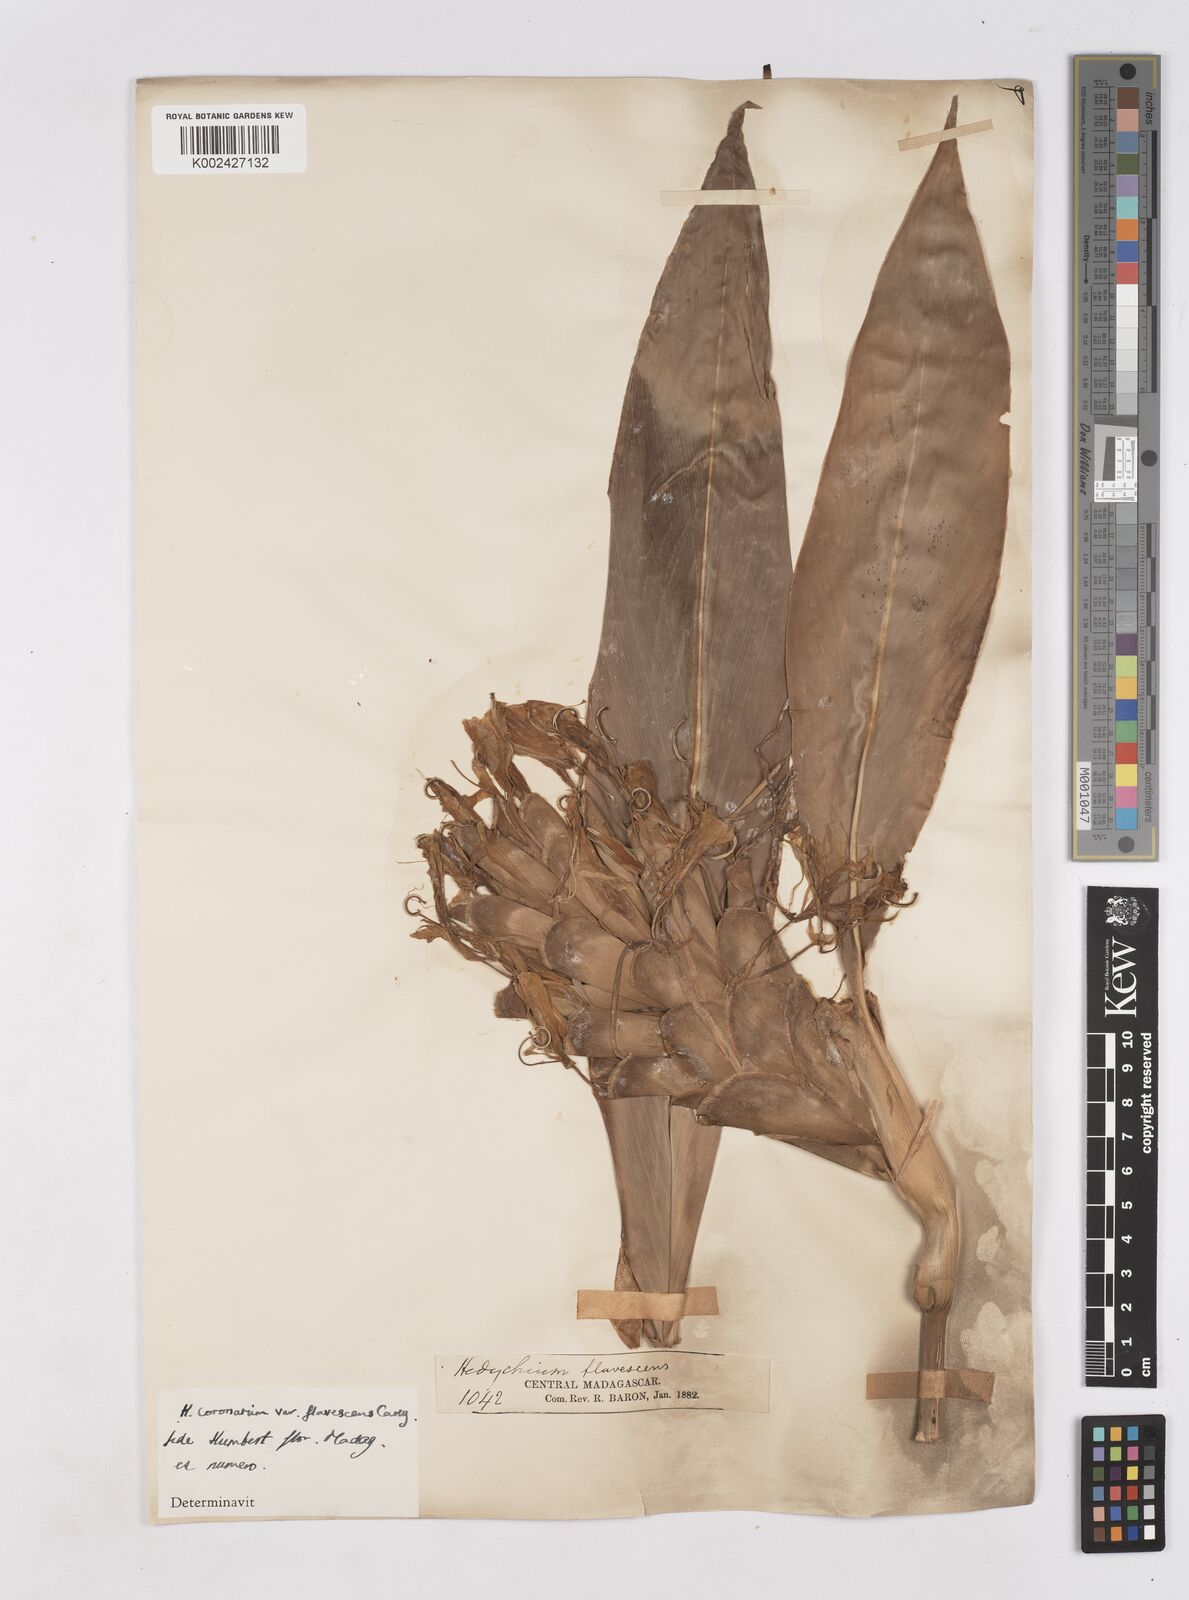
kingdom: Plantae
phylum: Tracheophyta
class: Liliopsida
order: Zingiberales
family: Zingiberaceae
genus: Hedychium
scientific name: Hedychium coronarium
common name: White garland-lily
